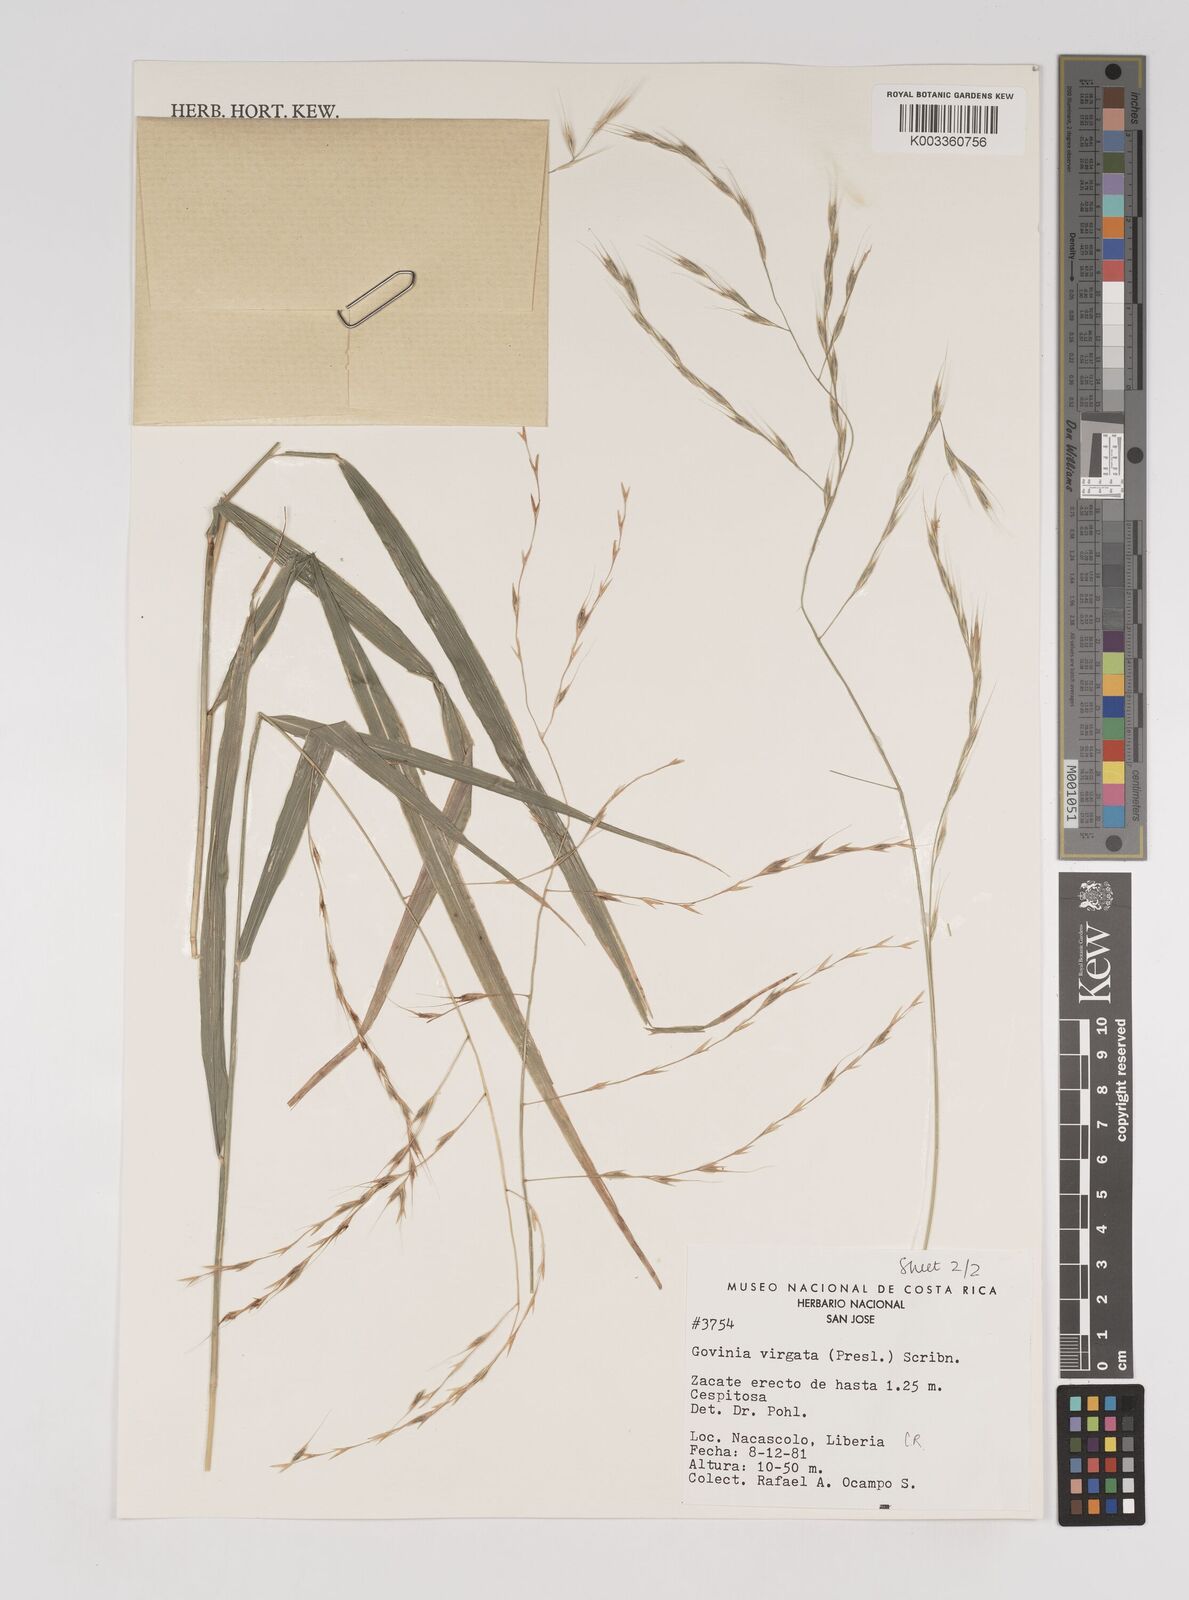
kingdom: Plantae
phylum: Tracheophyta
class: Liliopsida
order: Poales
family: Poaceae
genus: Gouinia
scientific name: Gouinia virgata
